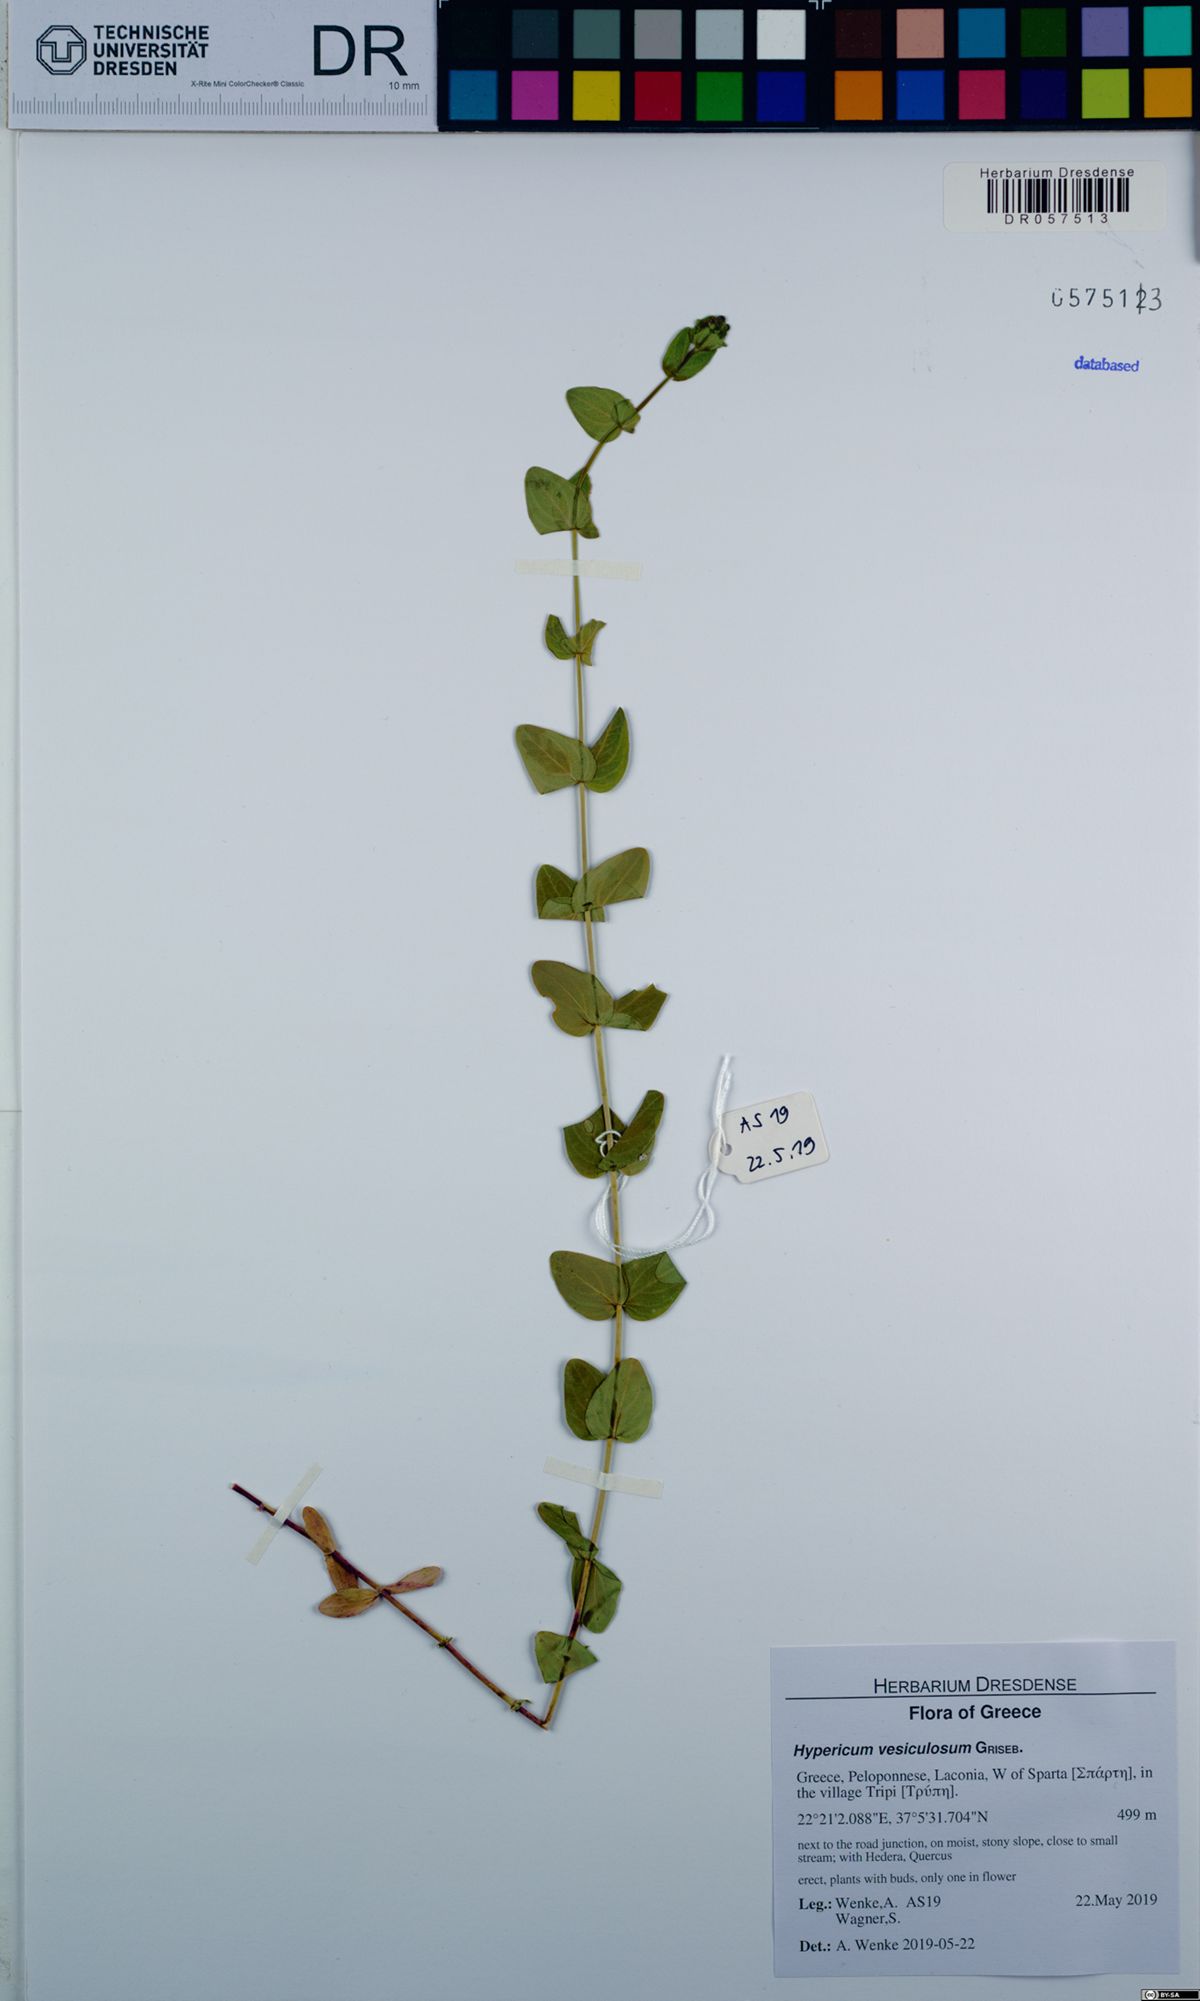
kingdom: Plantae
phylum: Tracheophyta
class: Magnoliopsida
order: Malpighiales
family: Hypericaceae
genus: Hypericum
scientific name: Hypericum vesiculosum
